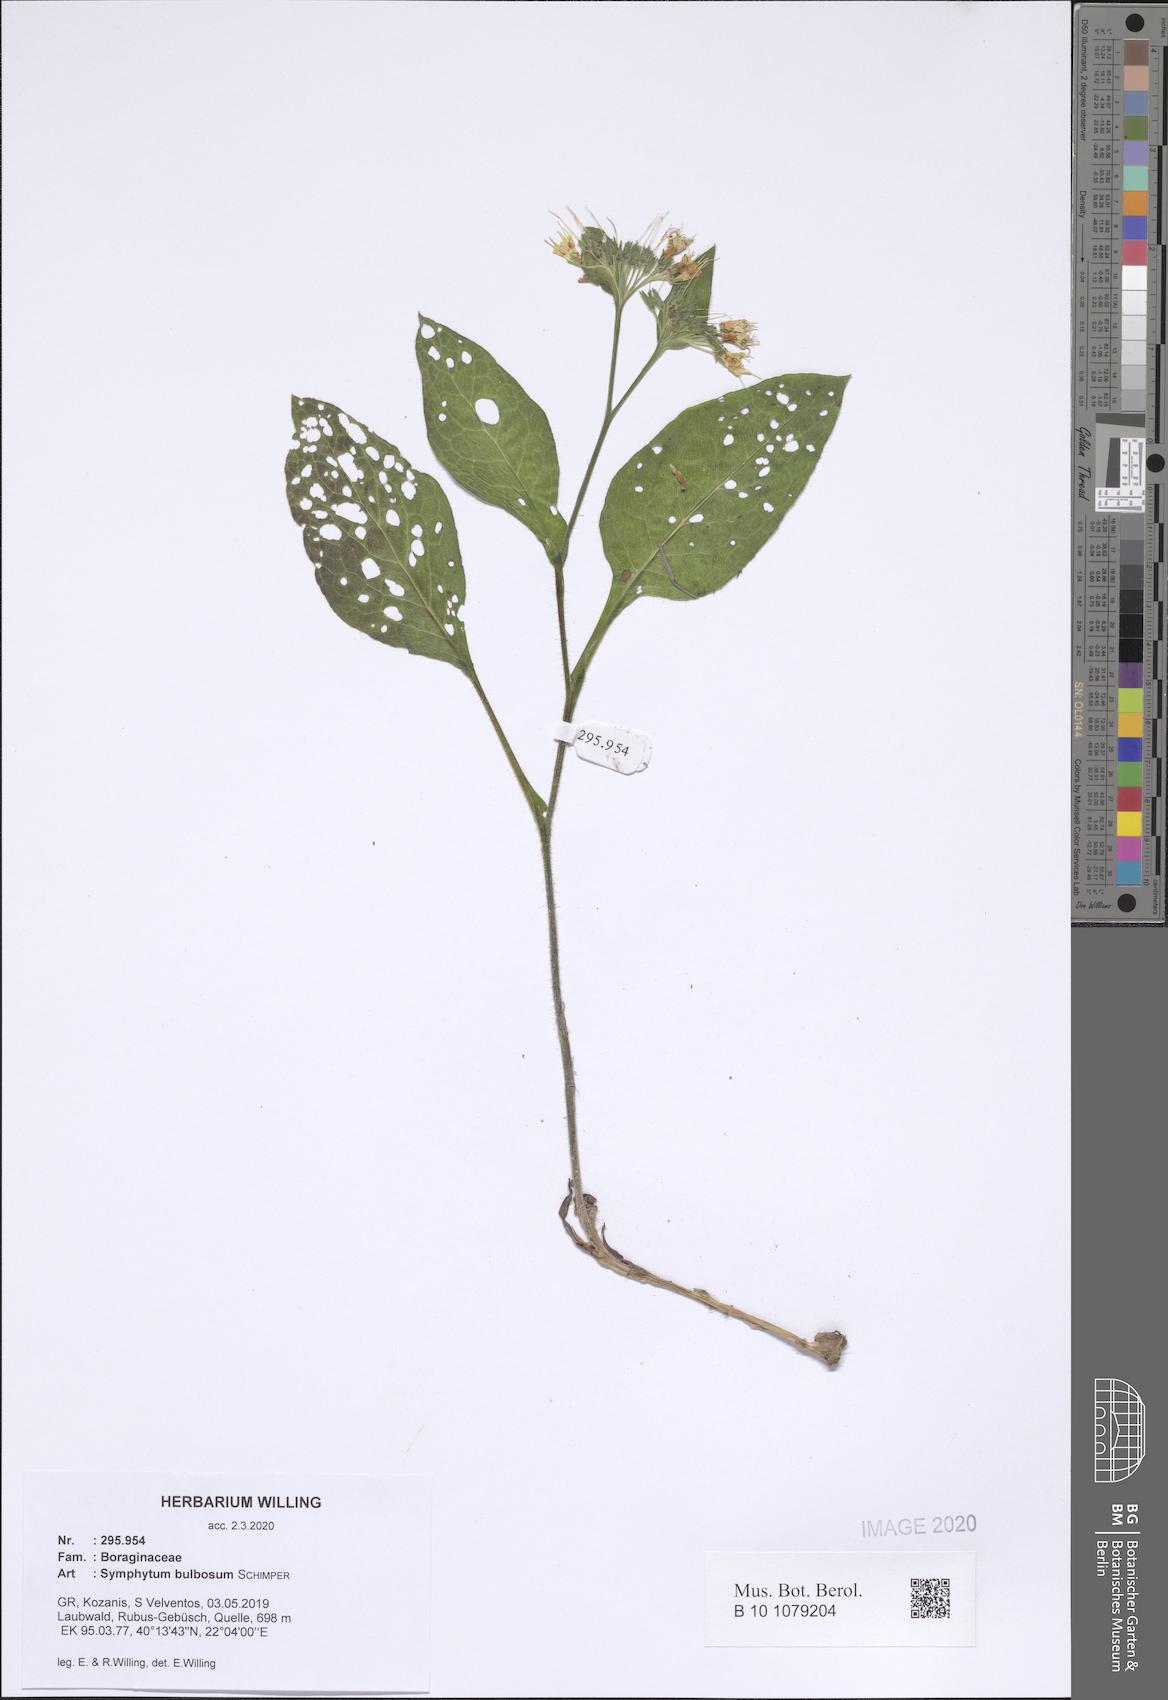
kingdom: Plantae
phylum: Tracheophyta
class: Magnoliopsida
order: Boraginales
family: Boraginaceae
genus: Symphytum
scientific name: Symphytum bulbosum
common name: Bulbous comfrey
